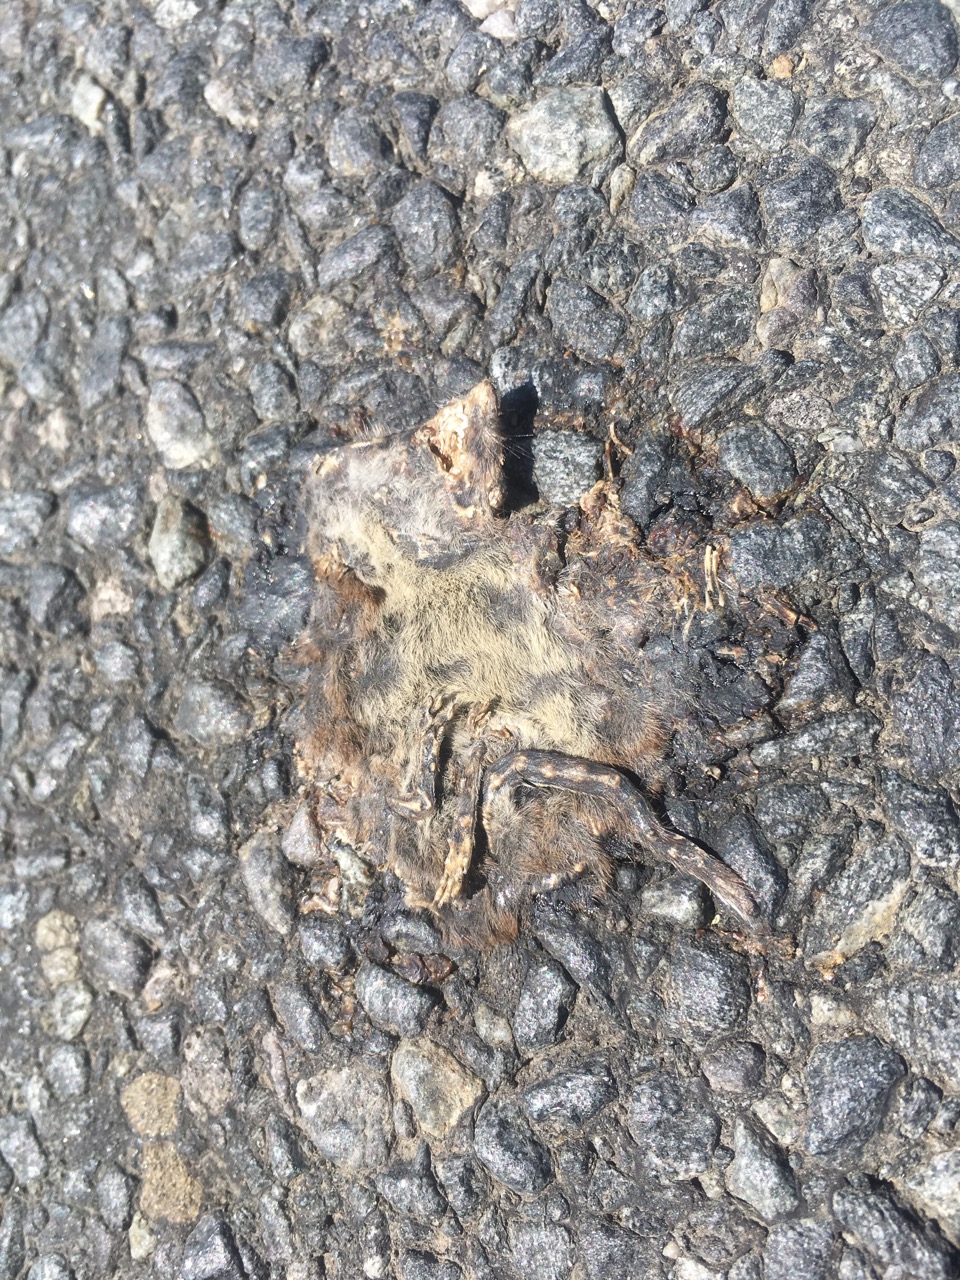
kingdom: Animalia
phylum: Chordata
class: Mammalia
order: Soricomorpha
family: Soricidae
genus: Crocidura
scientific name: Crocidura
